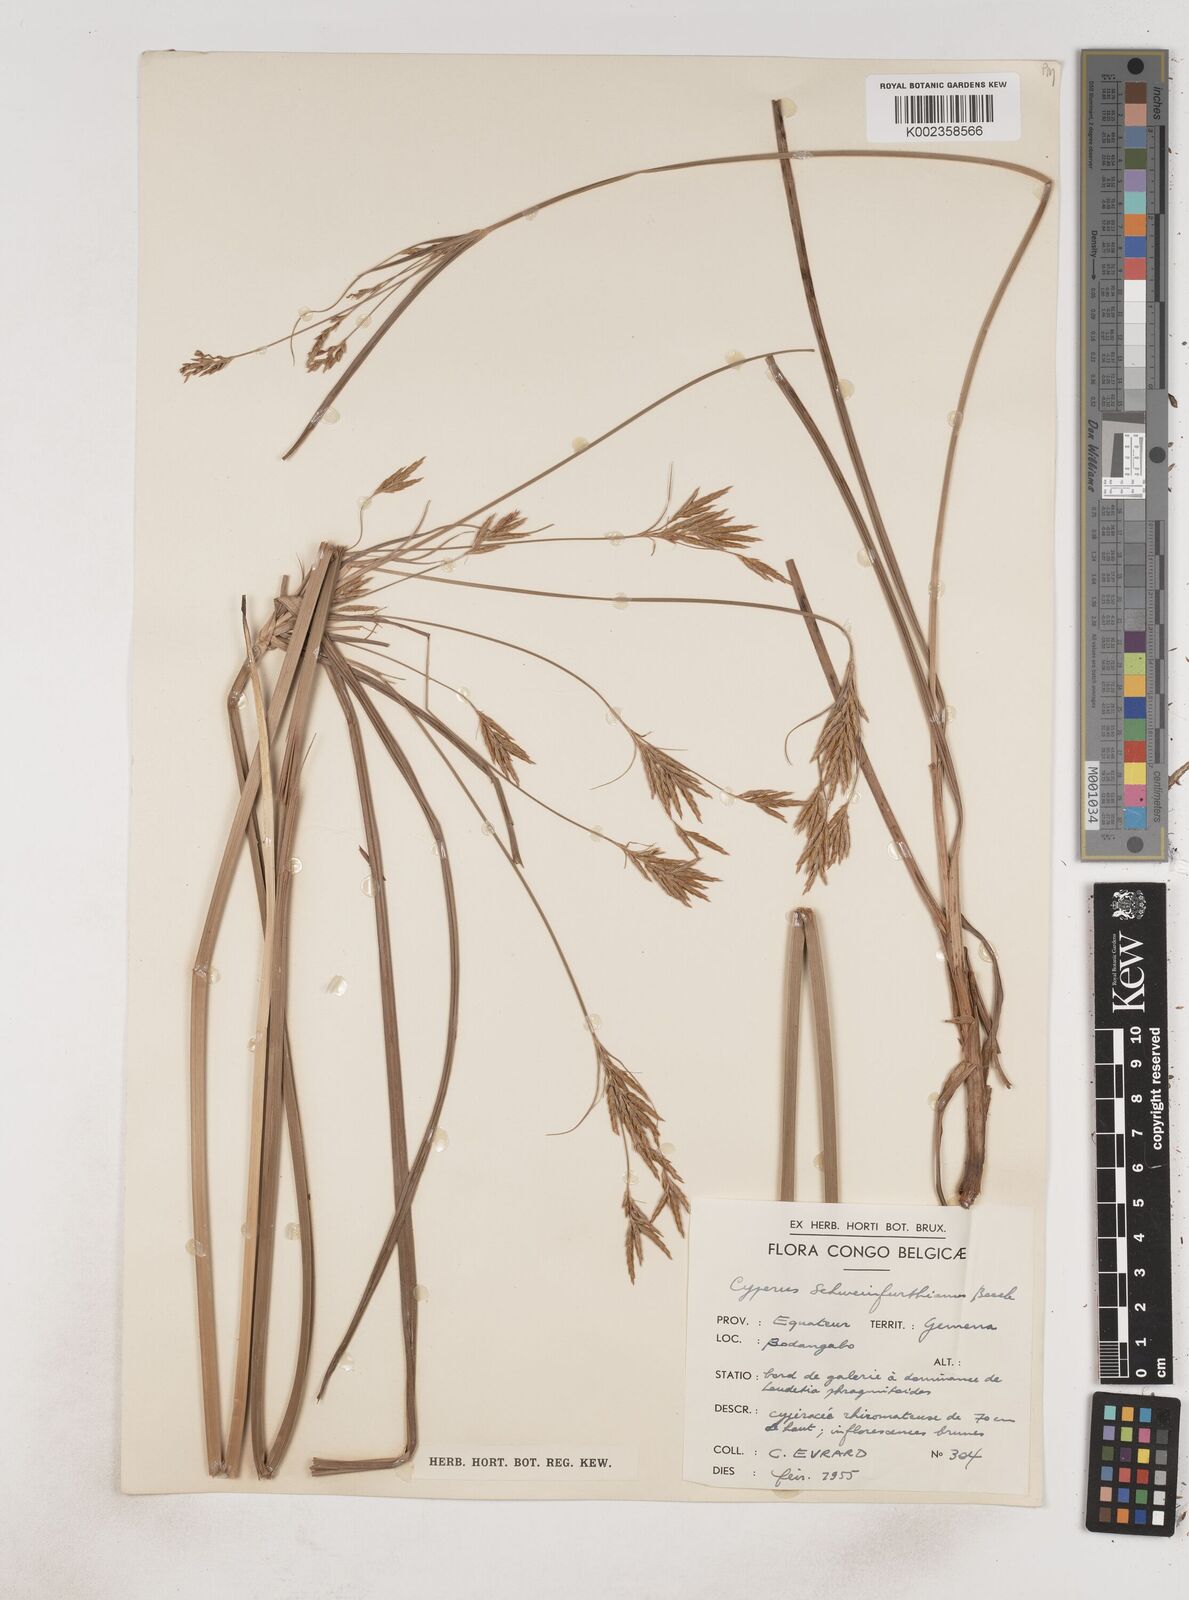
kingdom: Plantae
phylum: Tracheophyta
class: Liliopsida
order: Poales
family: Cyperaceae
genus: Cyperus
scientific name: Cyperus tenuiculmis
